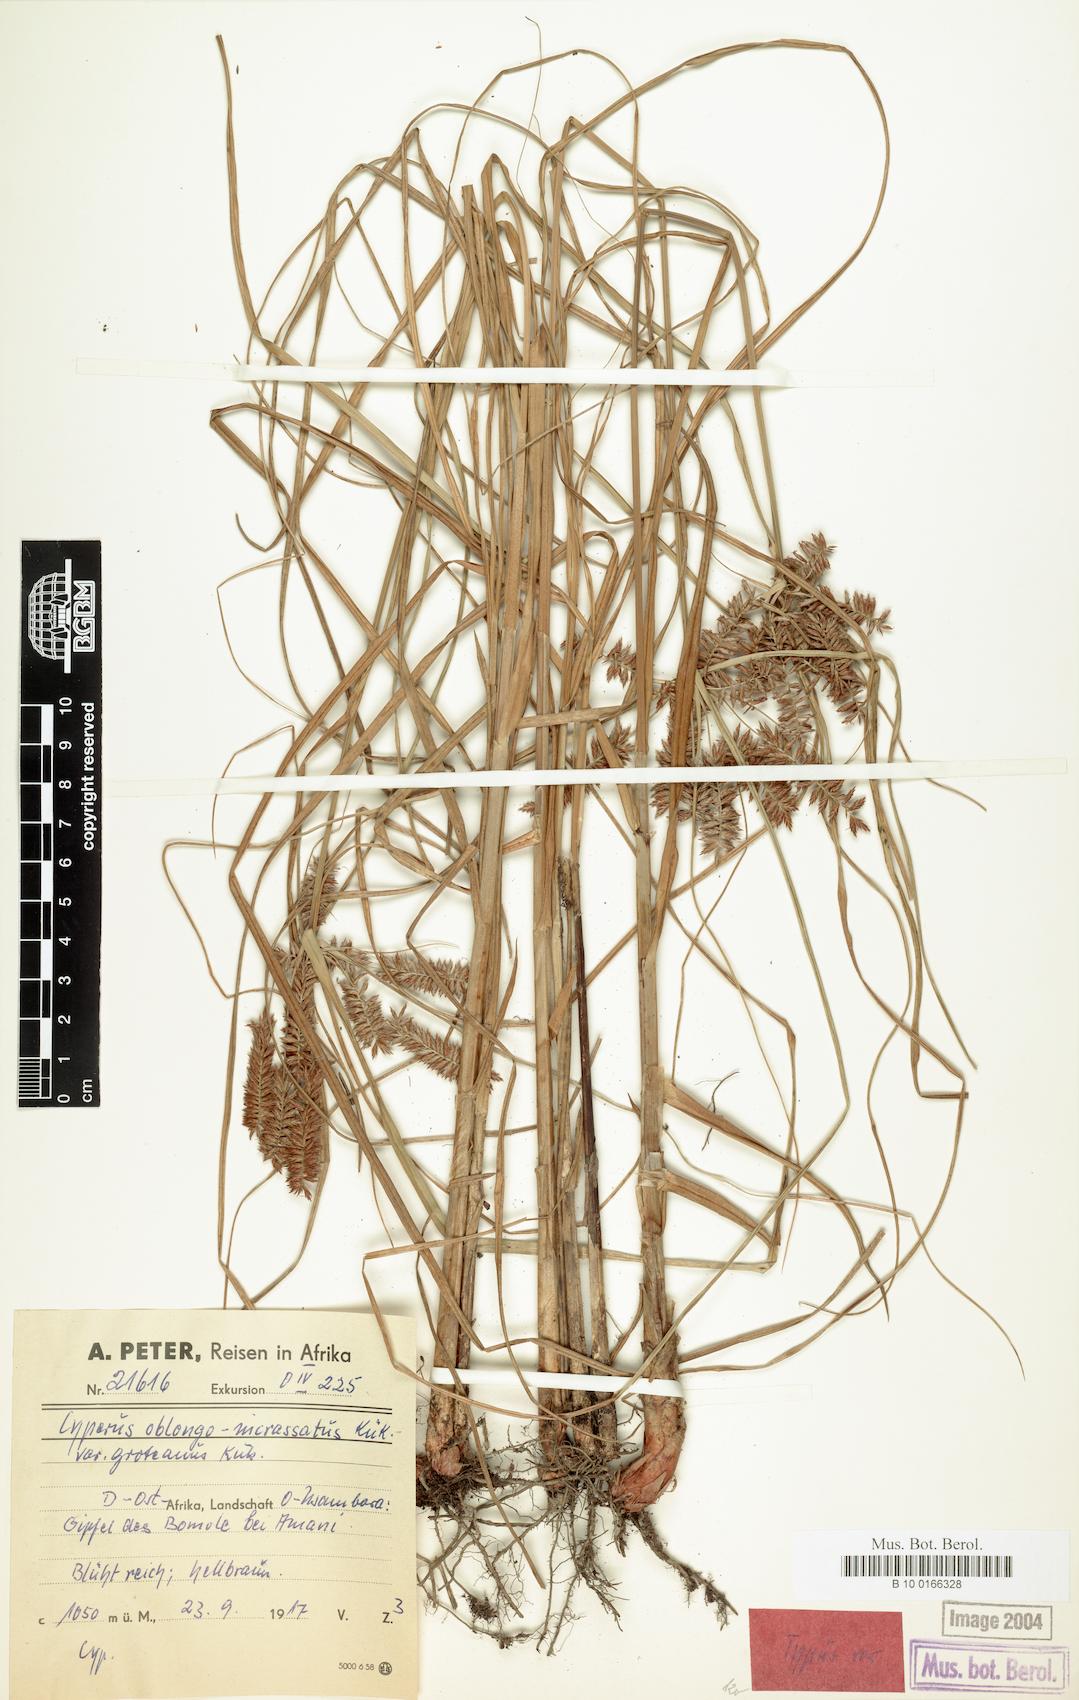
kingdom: Plantae
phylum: Tracheophyta
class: Liliopsida
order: Poales
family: Cyperaceae
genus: Cyperus
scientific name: Cyperus oblongoincrassatus
